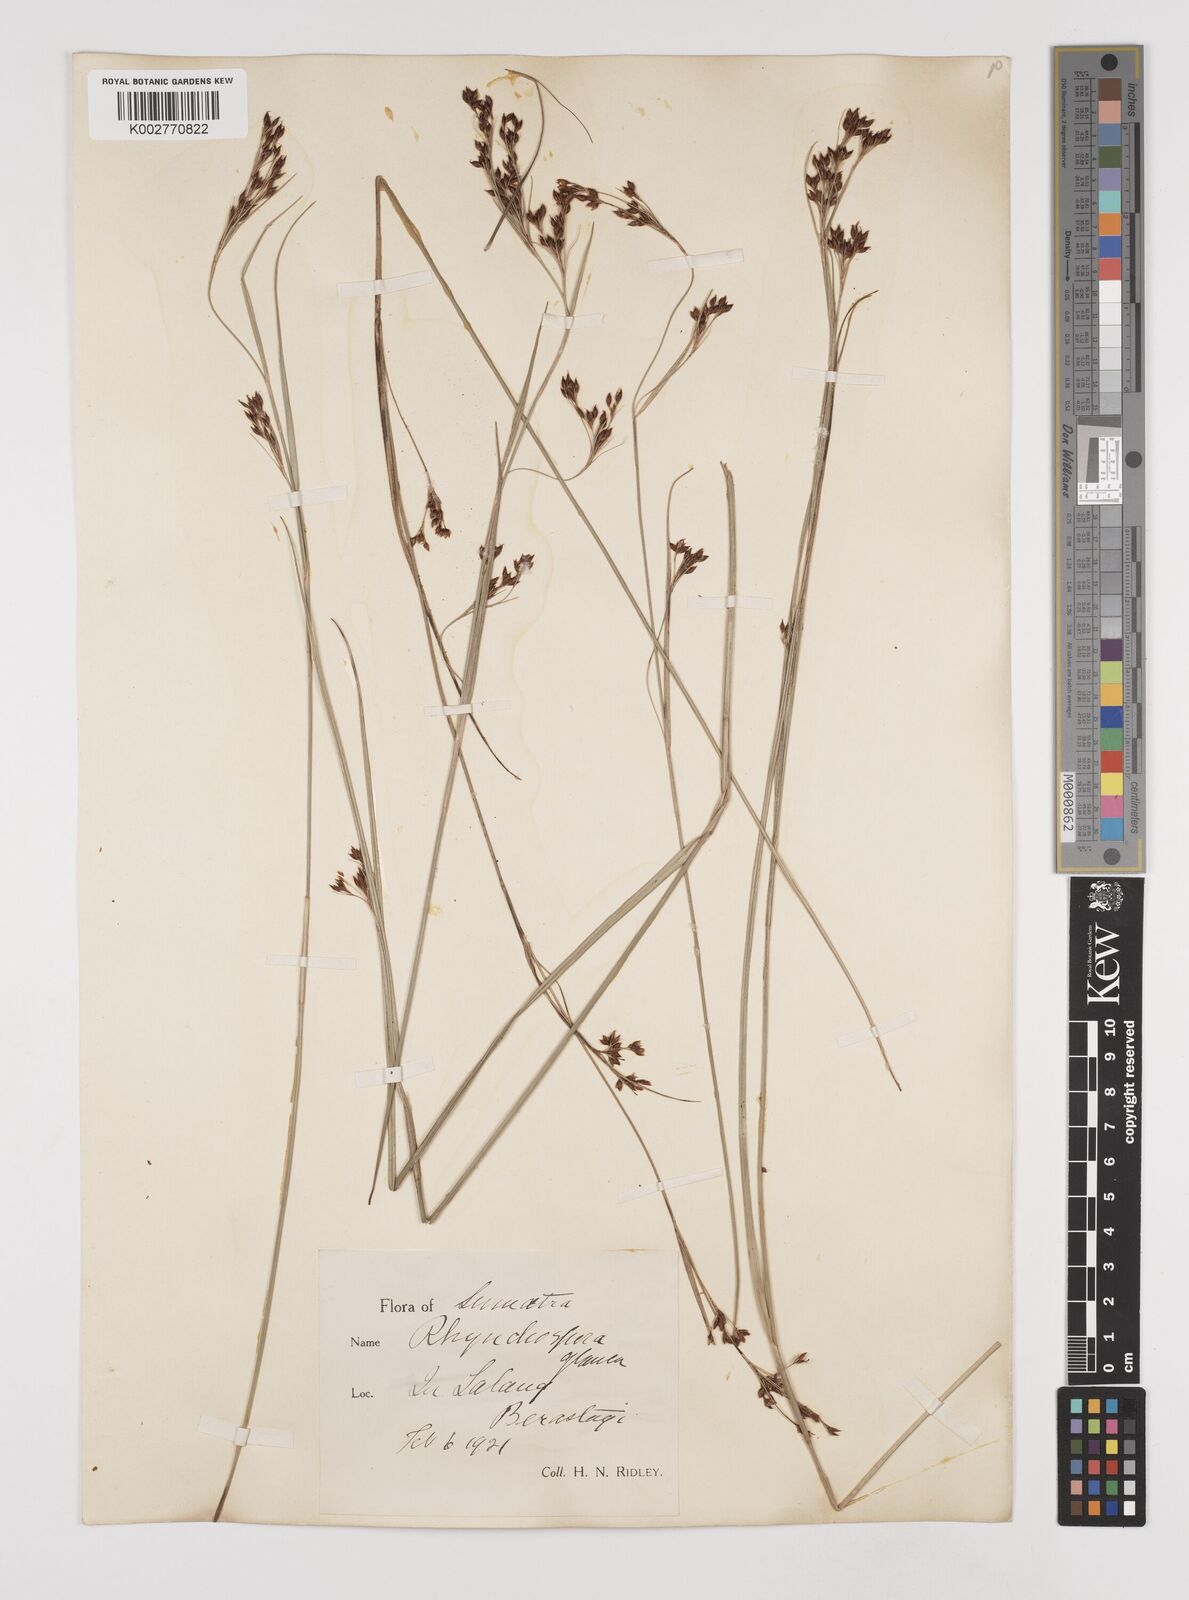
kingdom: Plantae
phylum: Tracheophyta
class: Liliopsida
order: Poales
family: Cyperaceae
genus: Rhynchospora
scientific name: Rhynchospora rugosa
